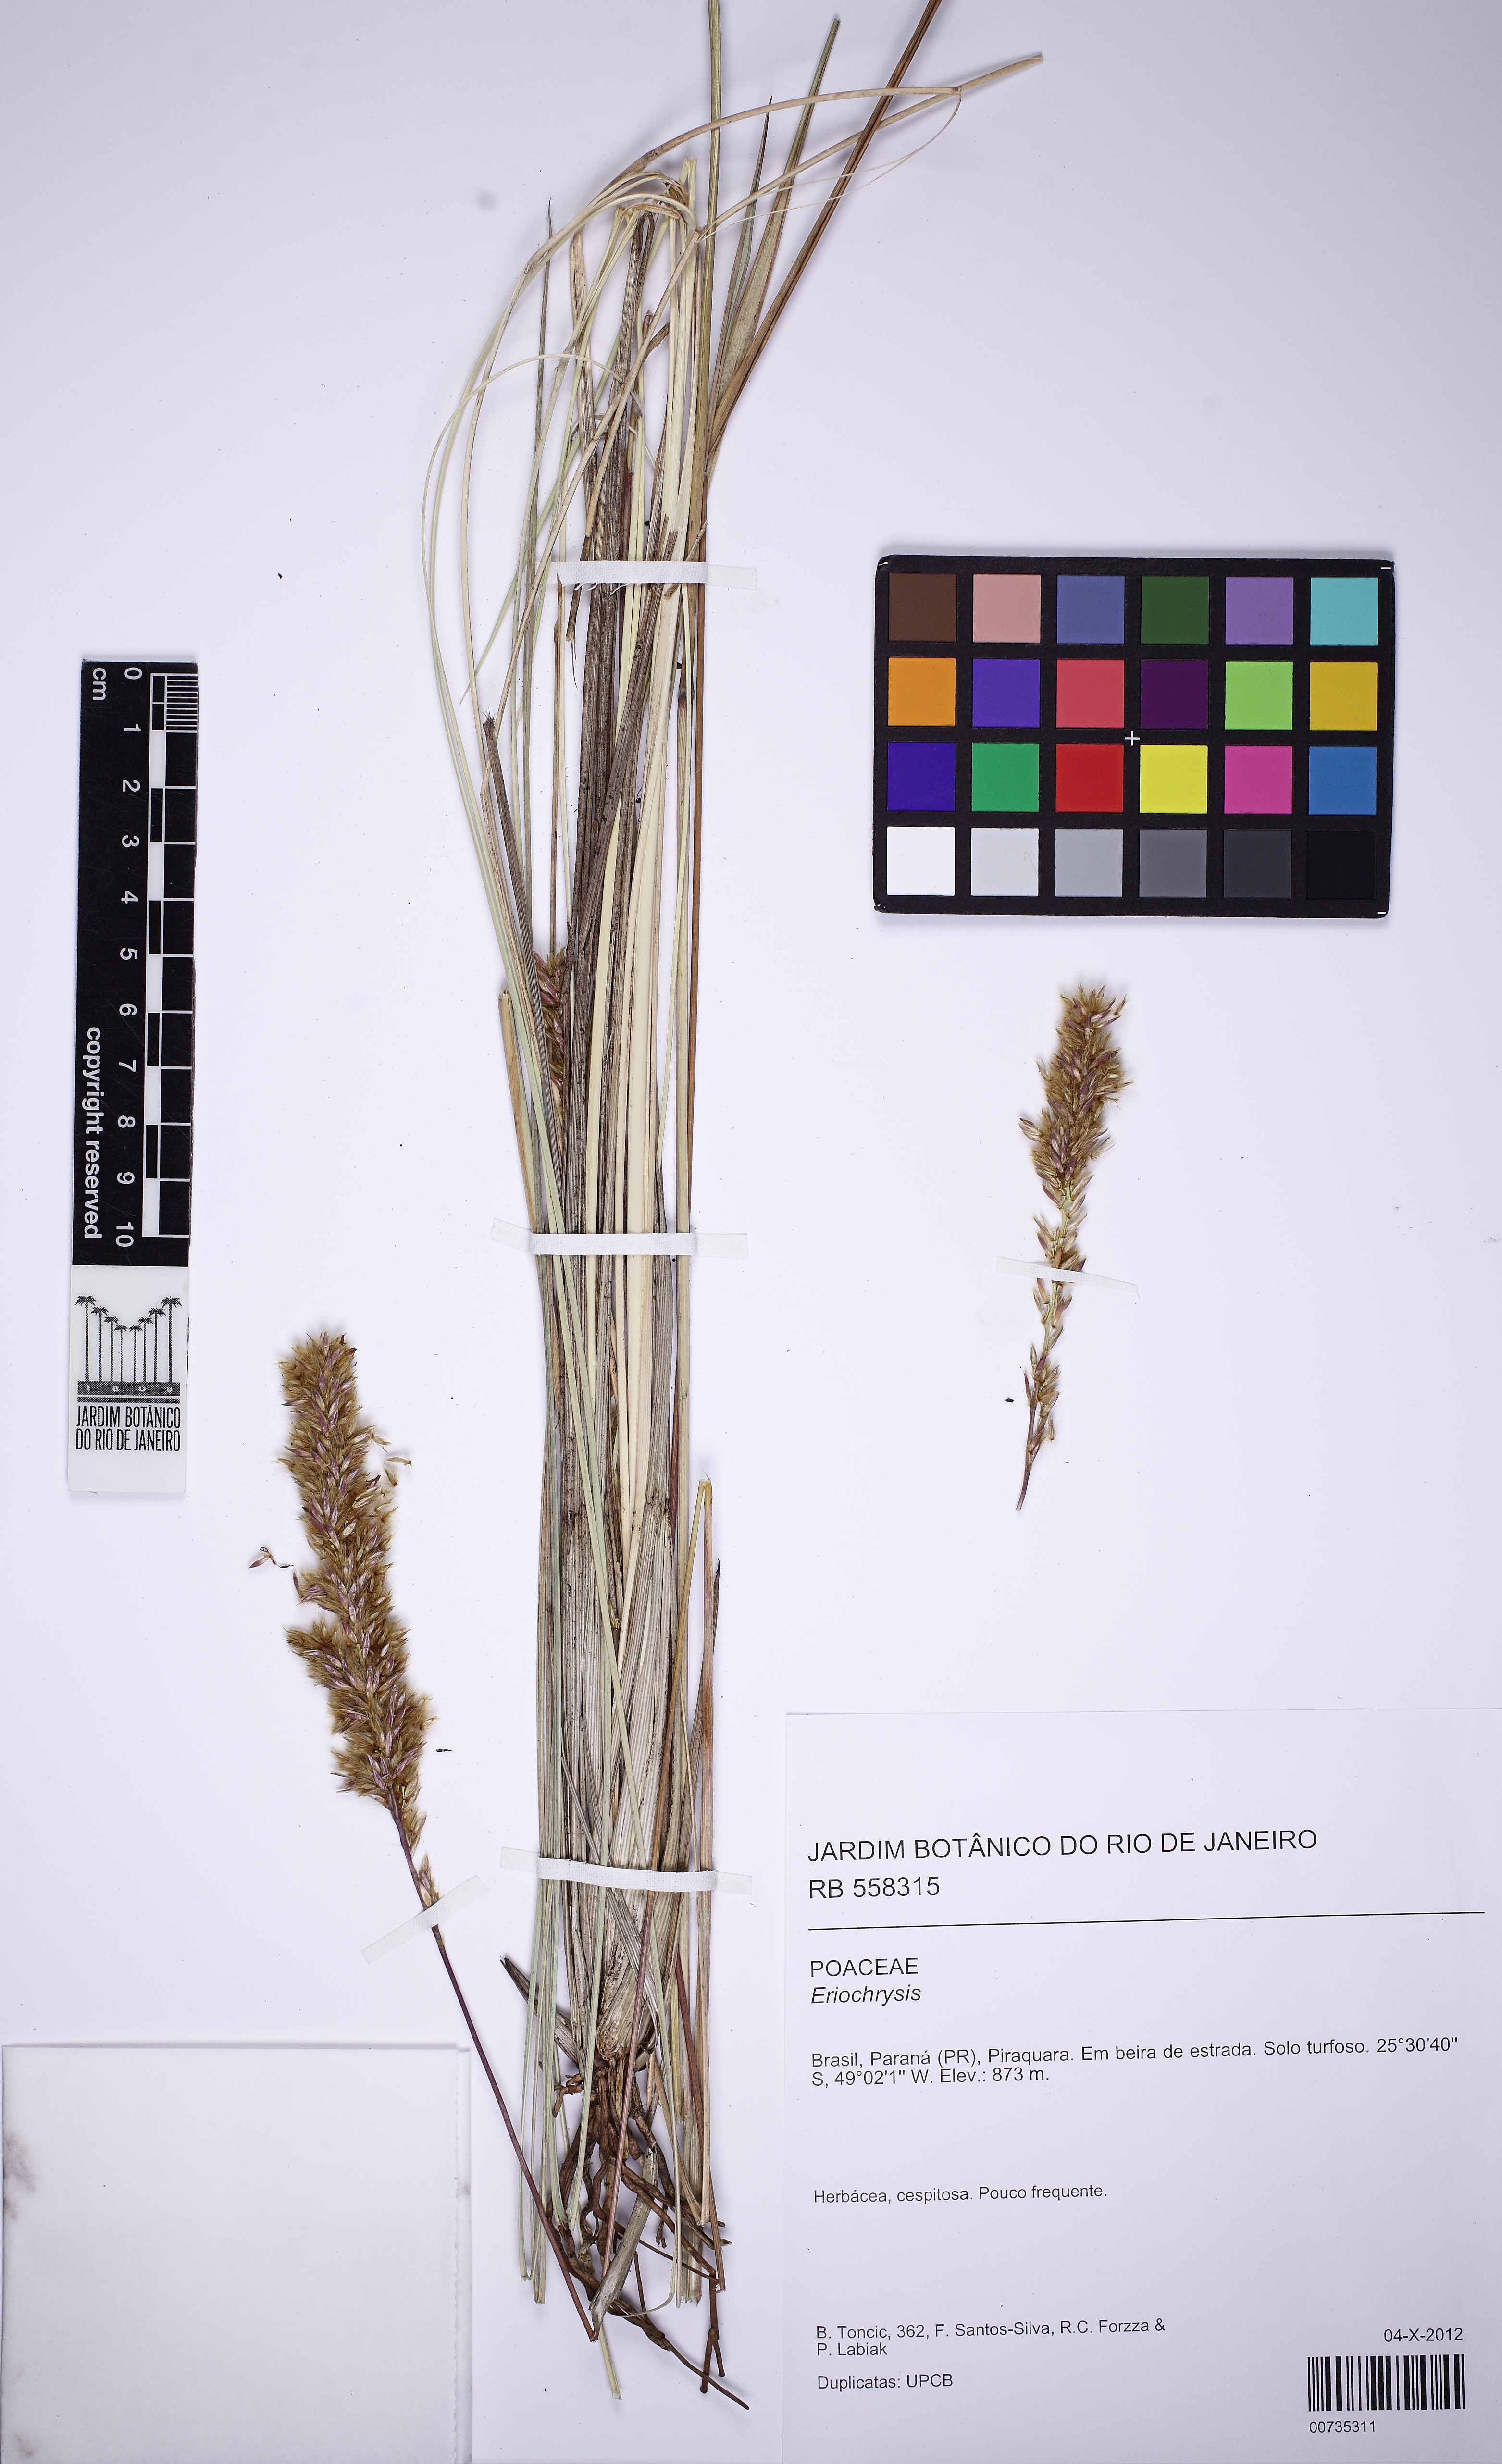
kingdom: Plantae
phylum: Tracheophyta
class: Liliopsida
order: Poales
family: Poaceae
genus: Eriochrysis
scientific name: Eriochrysis
